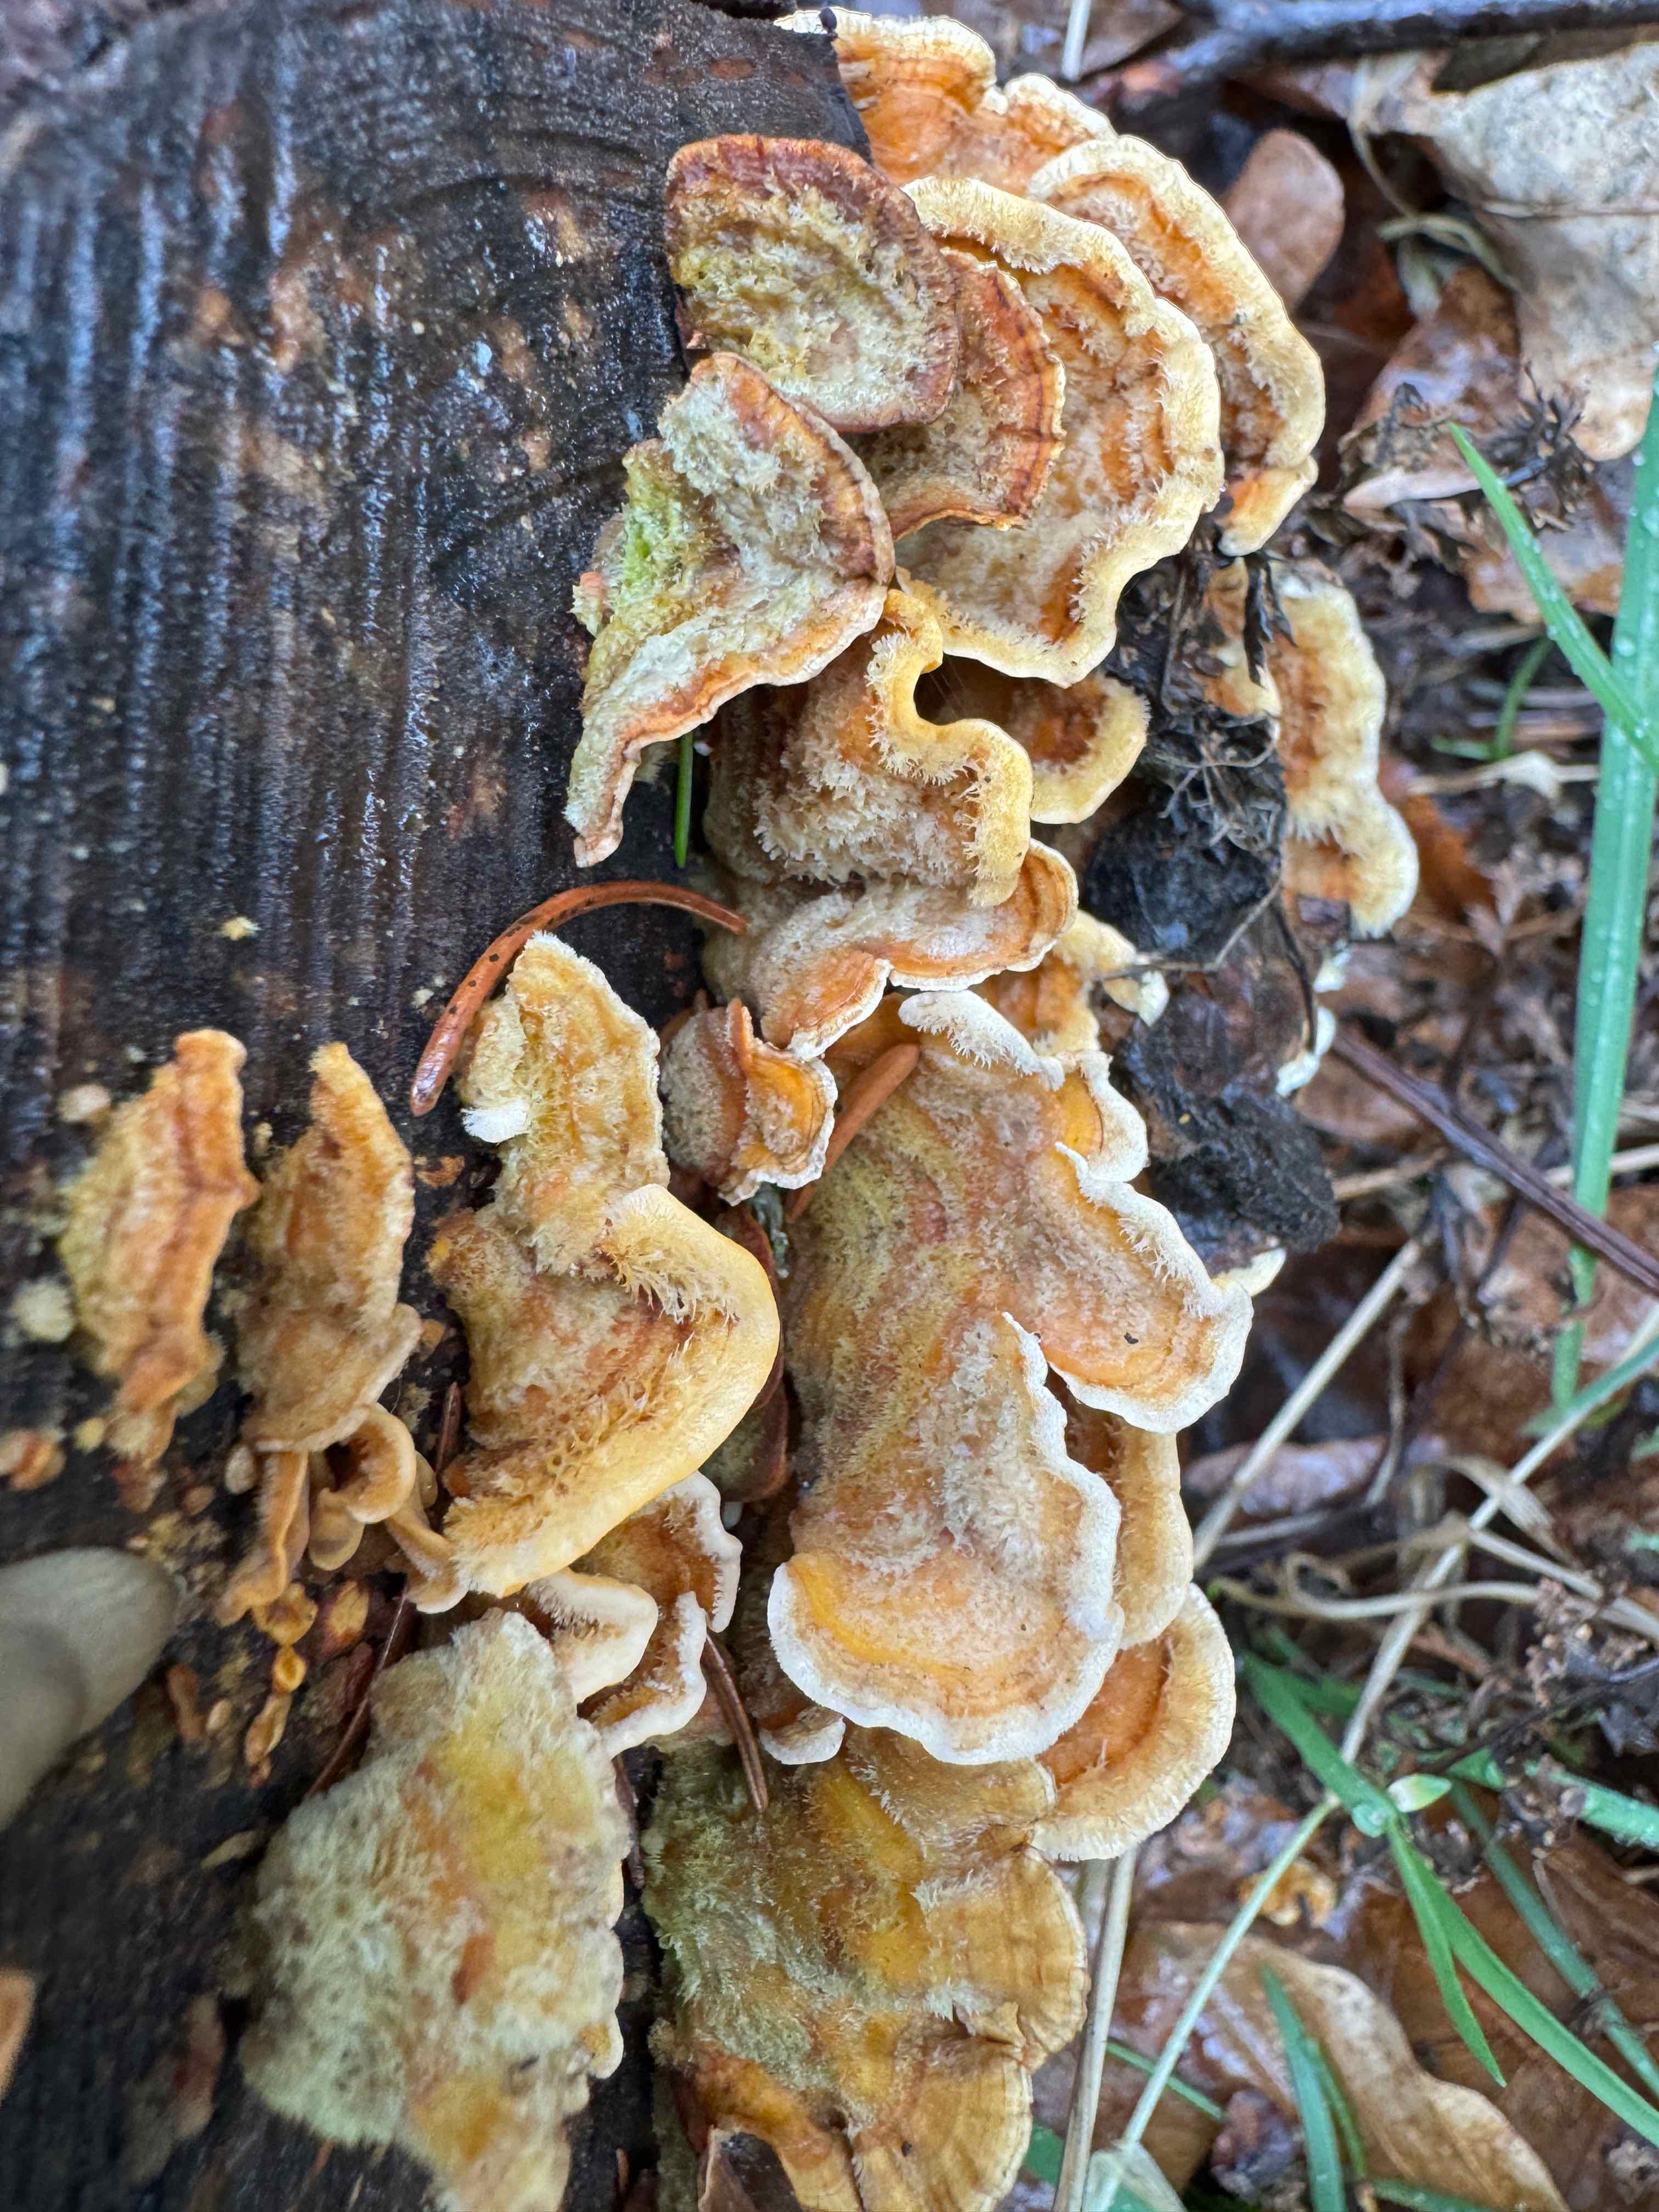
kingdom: Fungi
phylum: Basidiomycota
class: Agaricomycetes
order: Russulales
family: Stereaceae
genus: Stereum
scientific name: Stereum hirsutum
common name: håret lædersvamp
